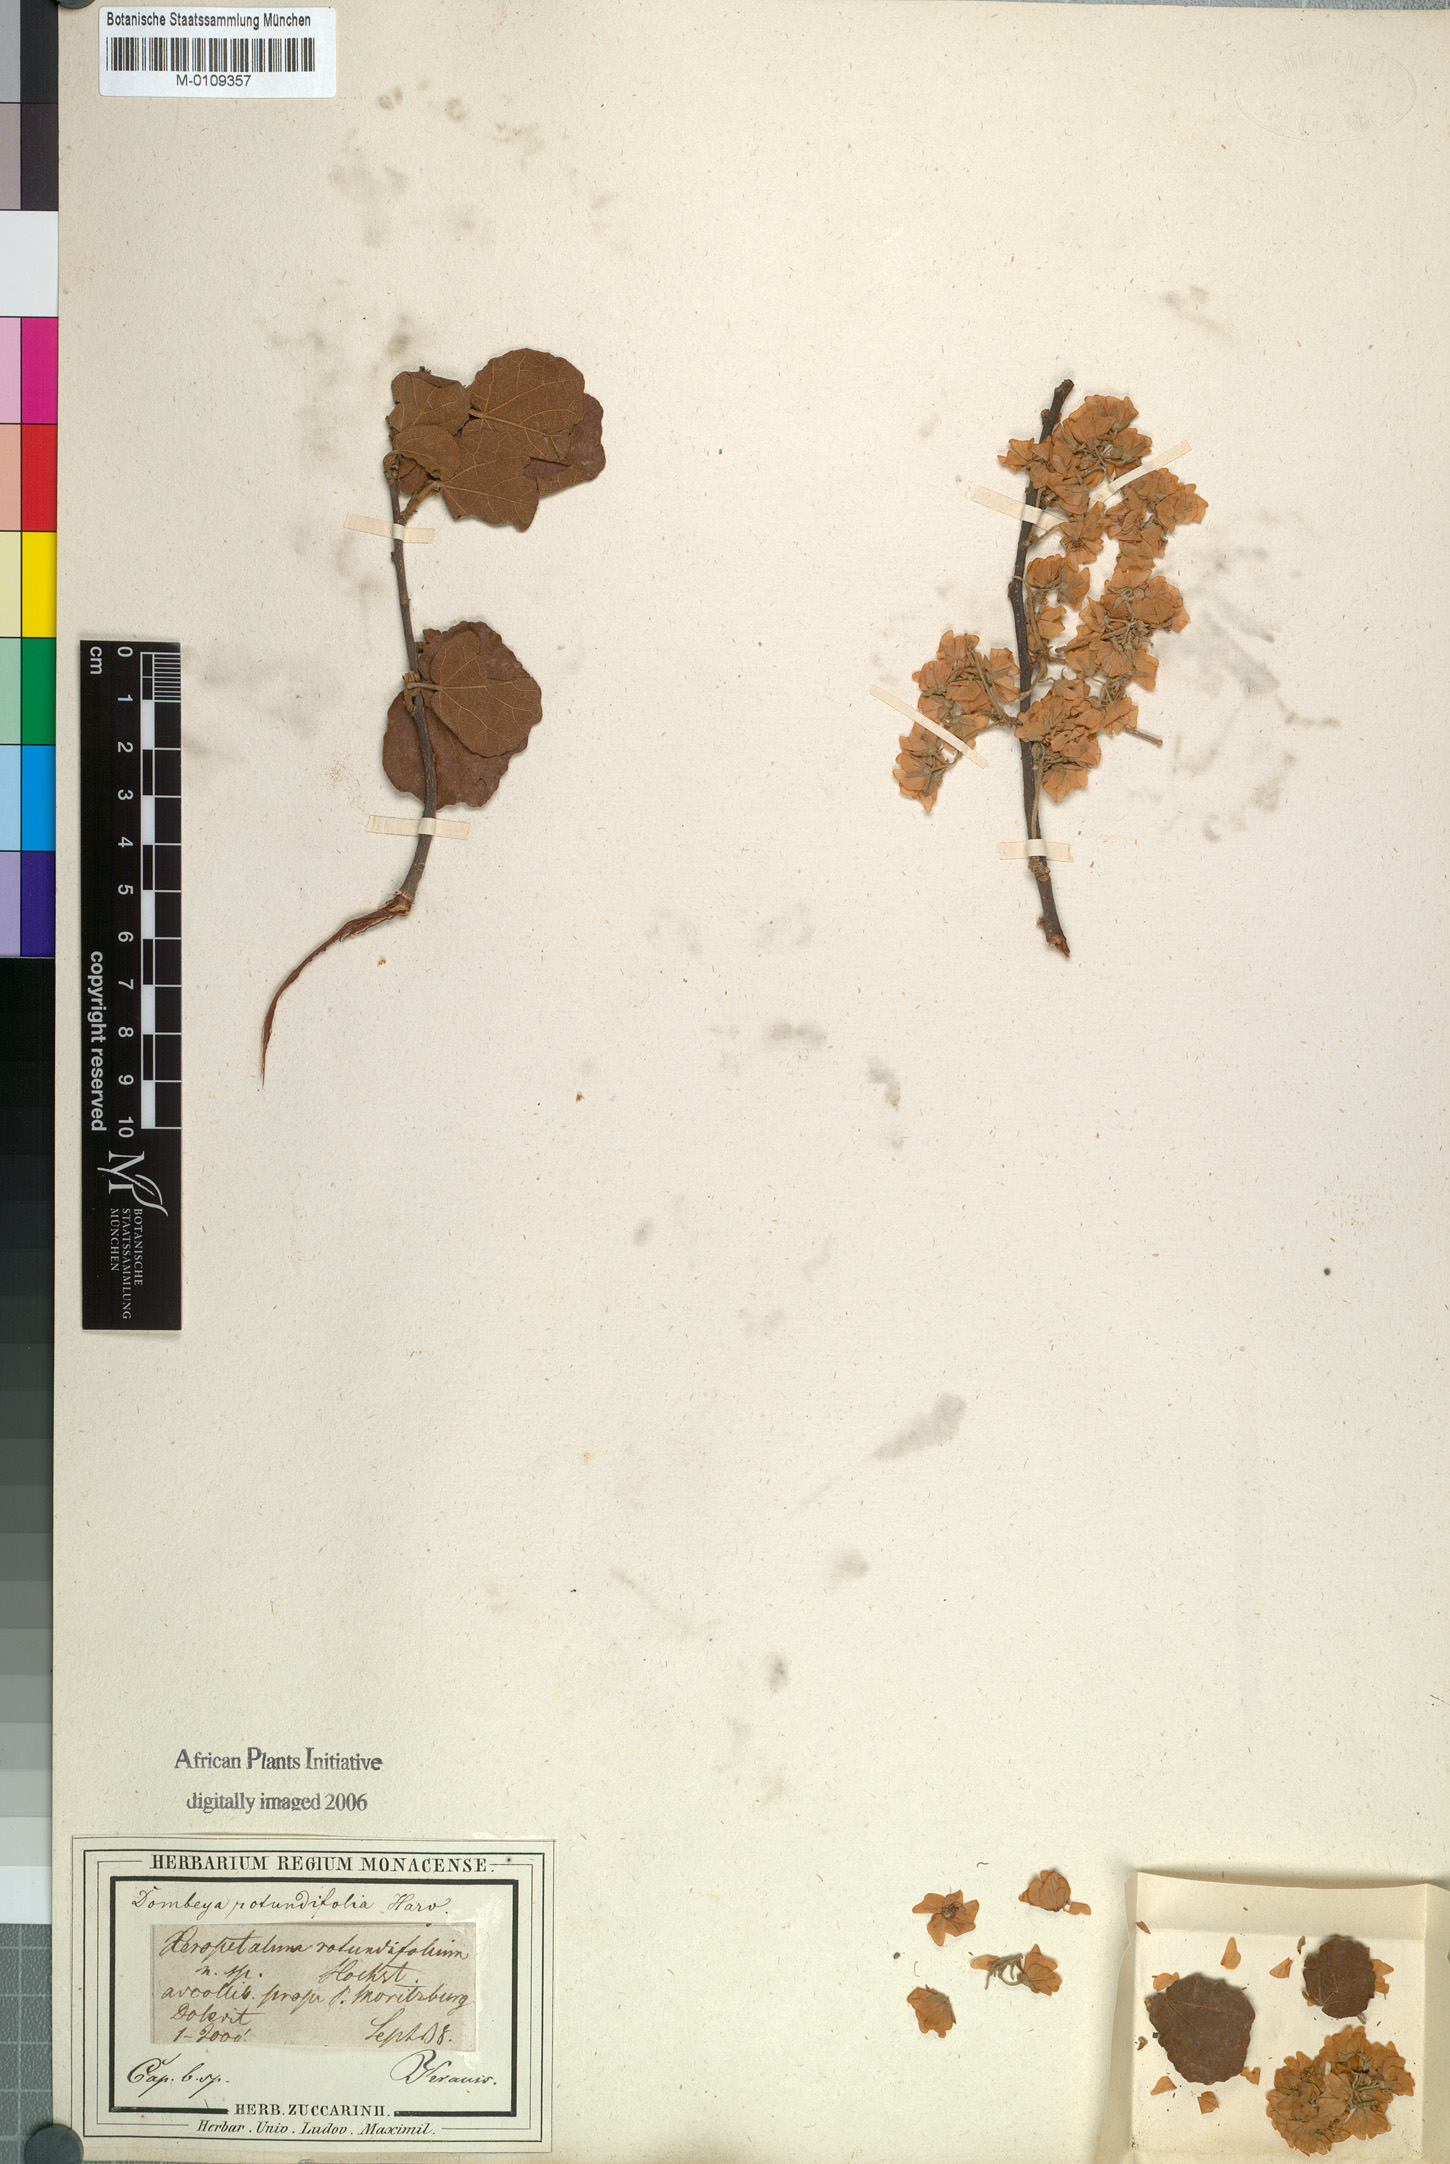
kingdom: Plantae
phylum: Tracheophyta
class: Magnoliopsida
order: Malvales
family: Malvaceae
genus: Dombeya
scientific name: Dombeya rotundifolia
